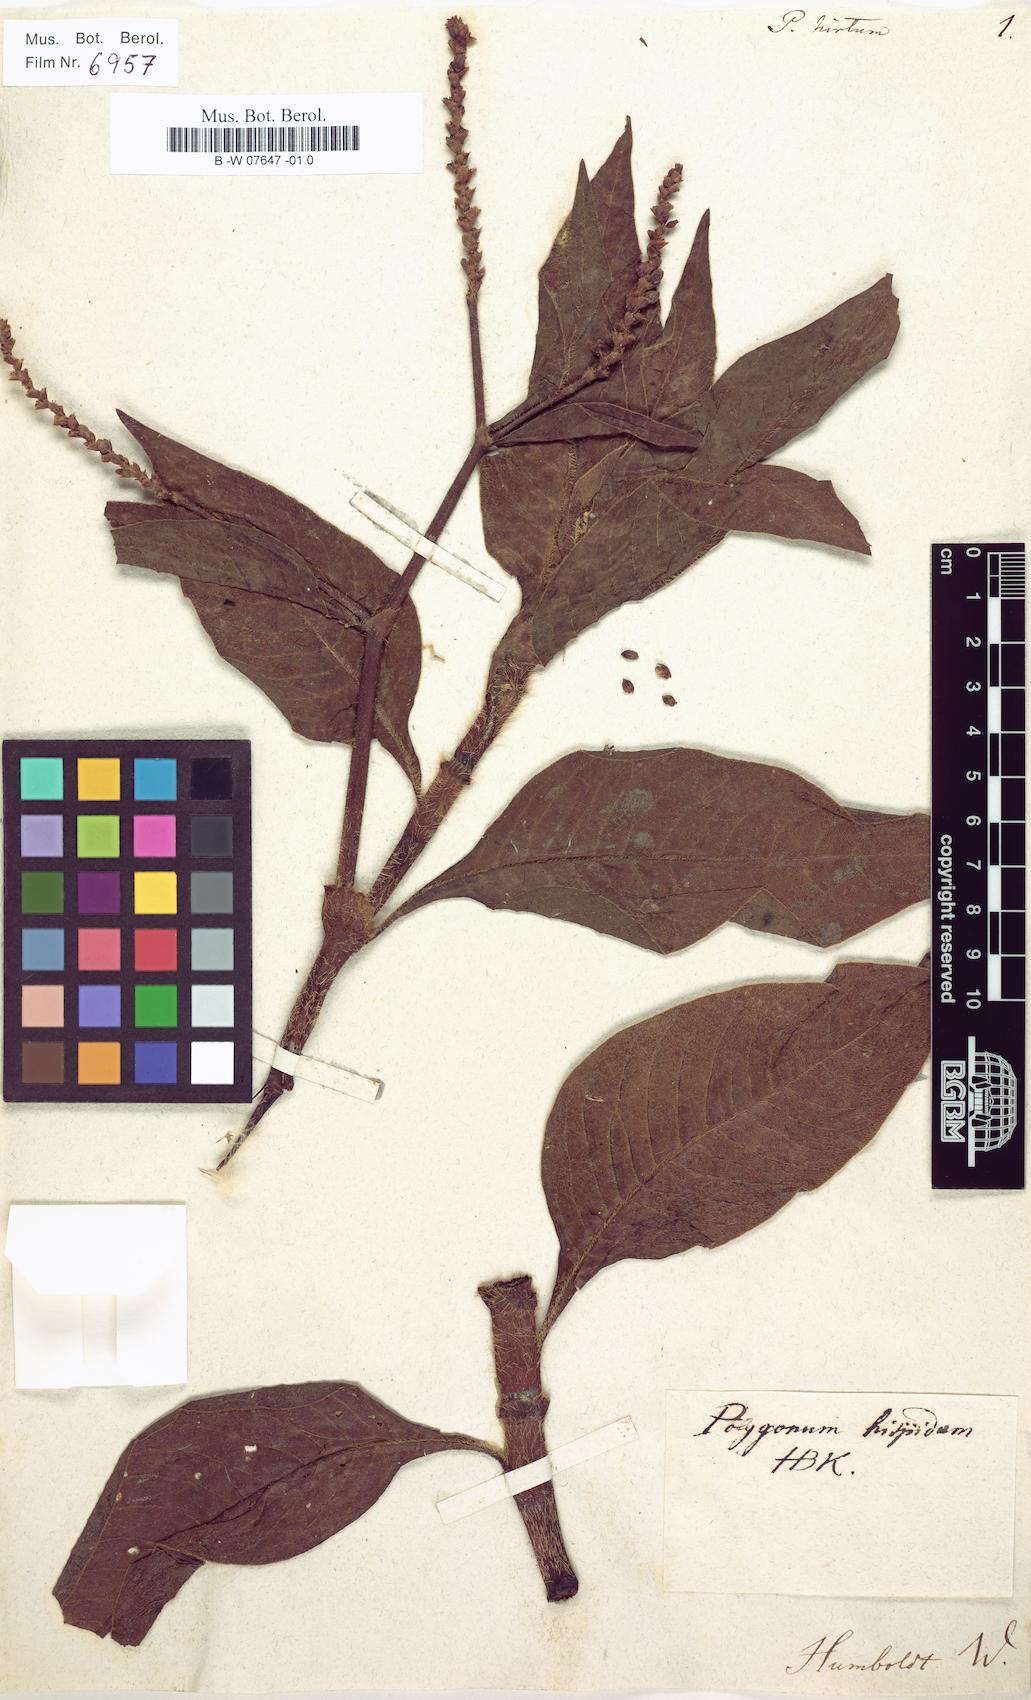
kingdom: Plantae
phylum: Tracheophyta
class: Magnoliopsida
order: Caryophyllales
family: Polygonaceae
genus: Persicaria
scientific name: Persicaria orientalis
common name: Kiss-me-over-the-garden-gate
